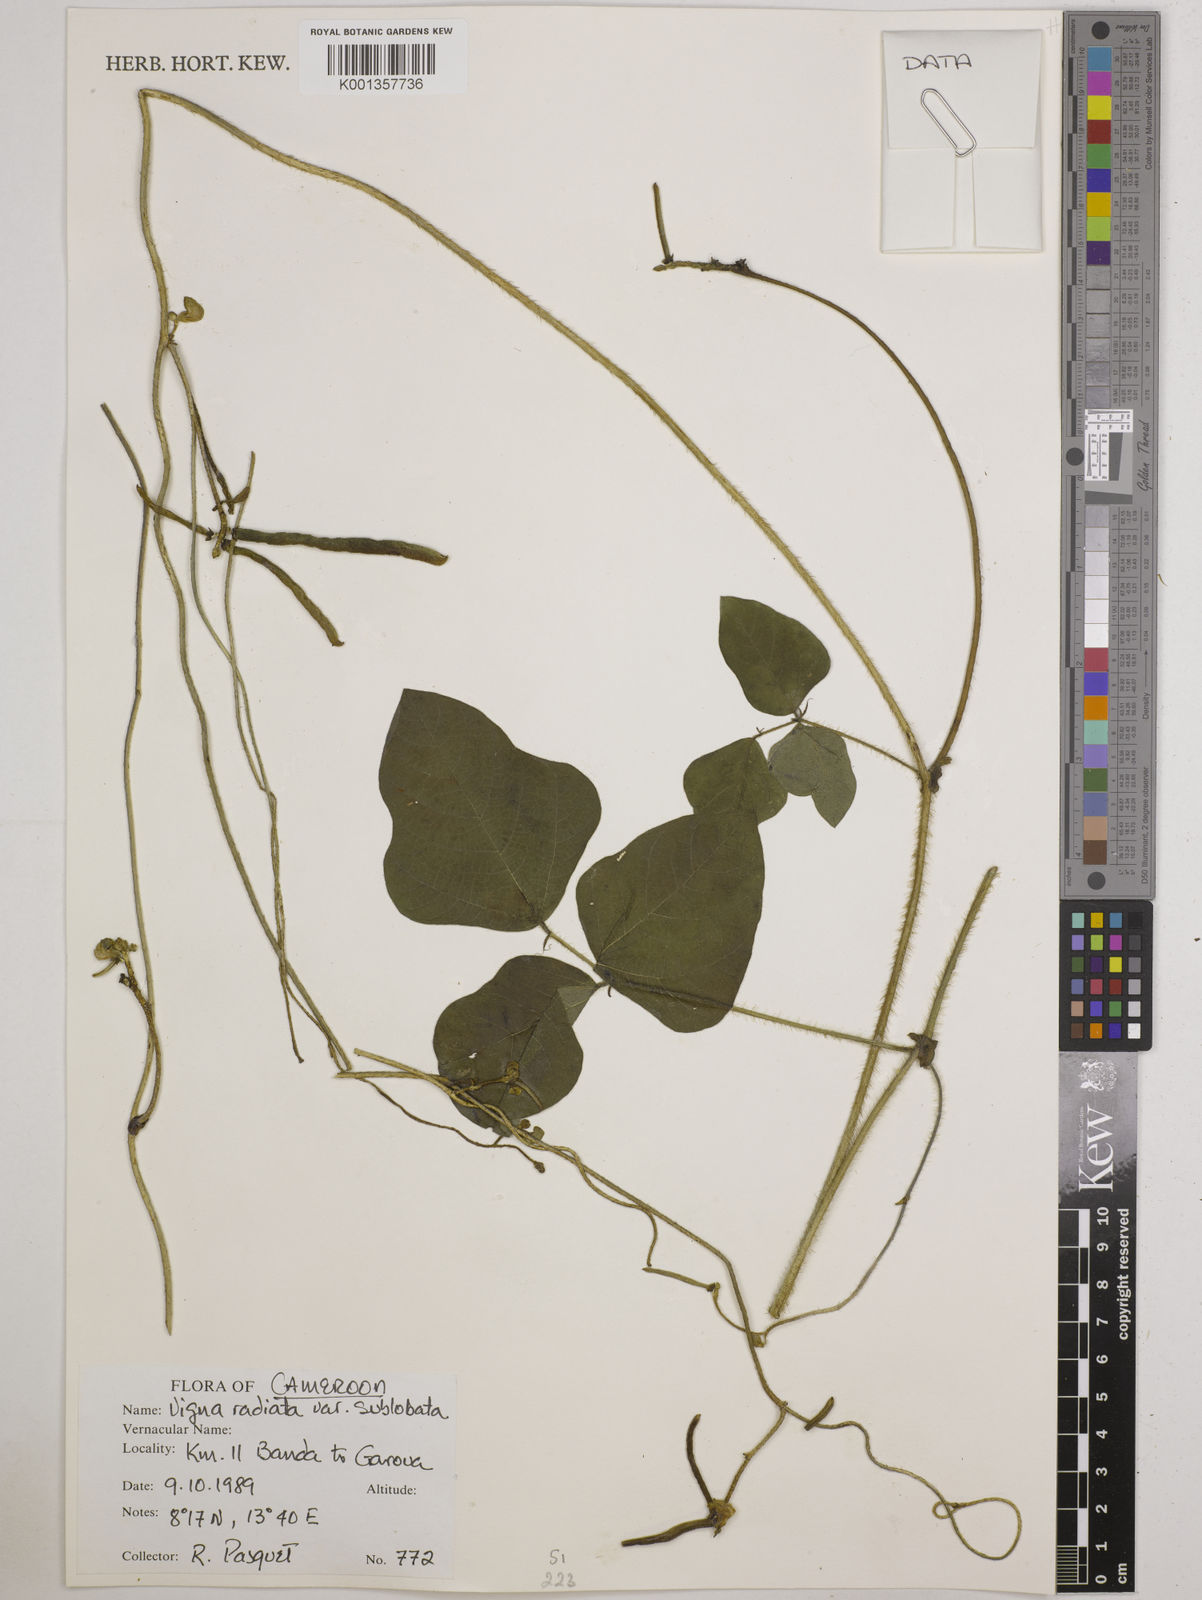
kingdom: Plantae
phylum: Tracheophyta
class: Magnoliopsida
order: Fabales
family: Fabaceae
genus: Vigna
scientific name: Vigna radiata
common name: Mung-bean
